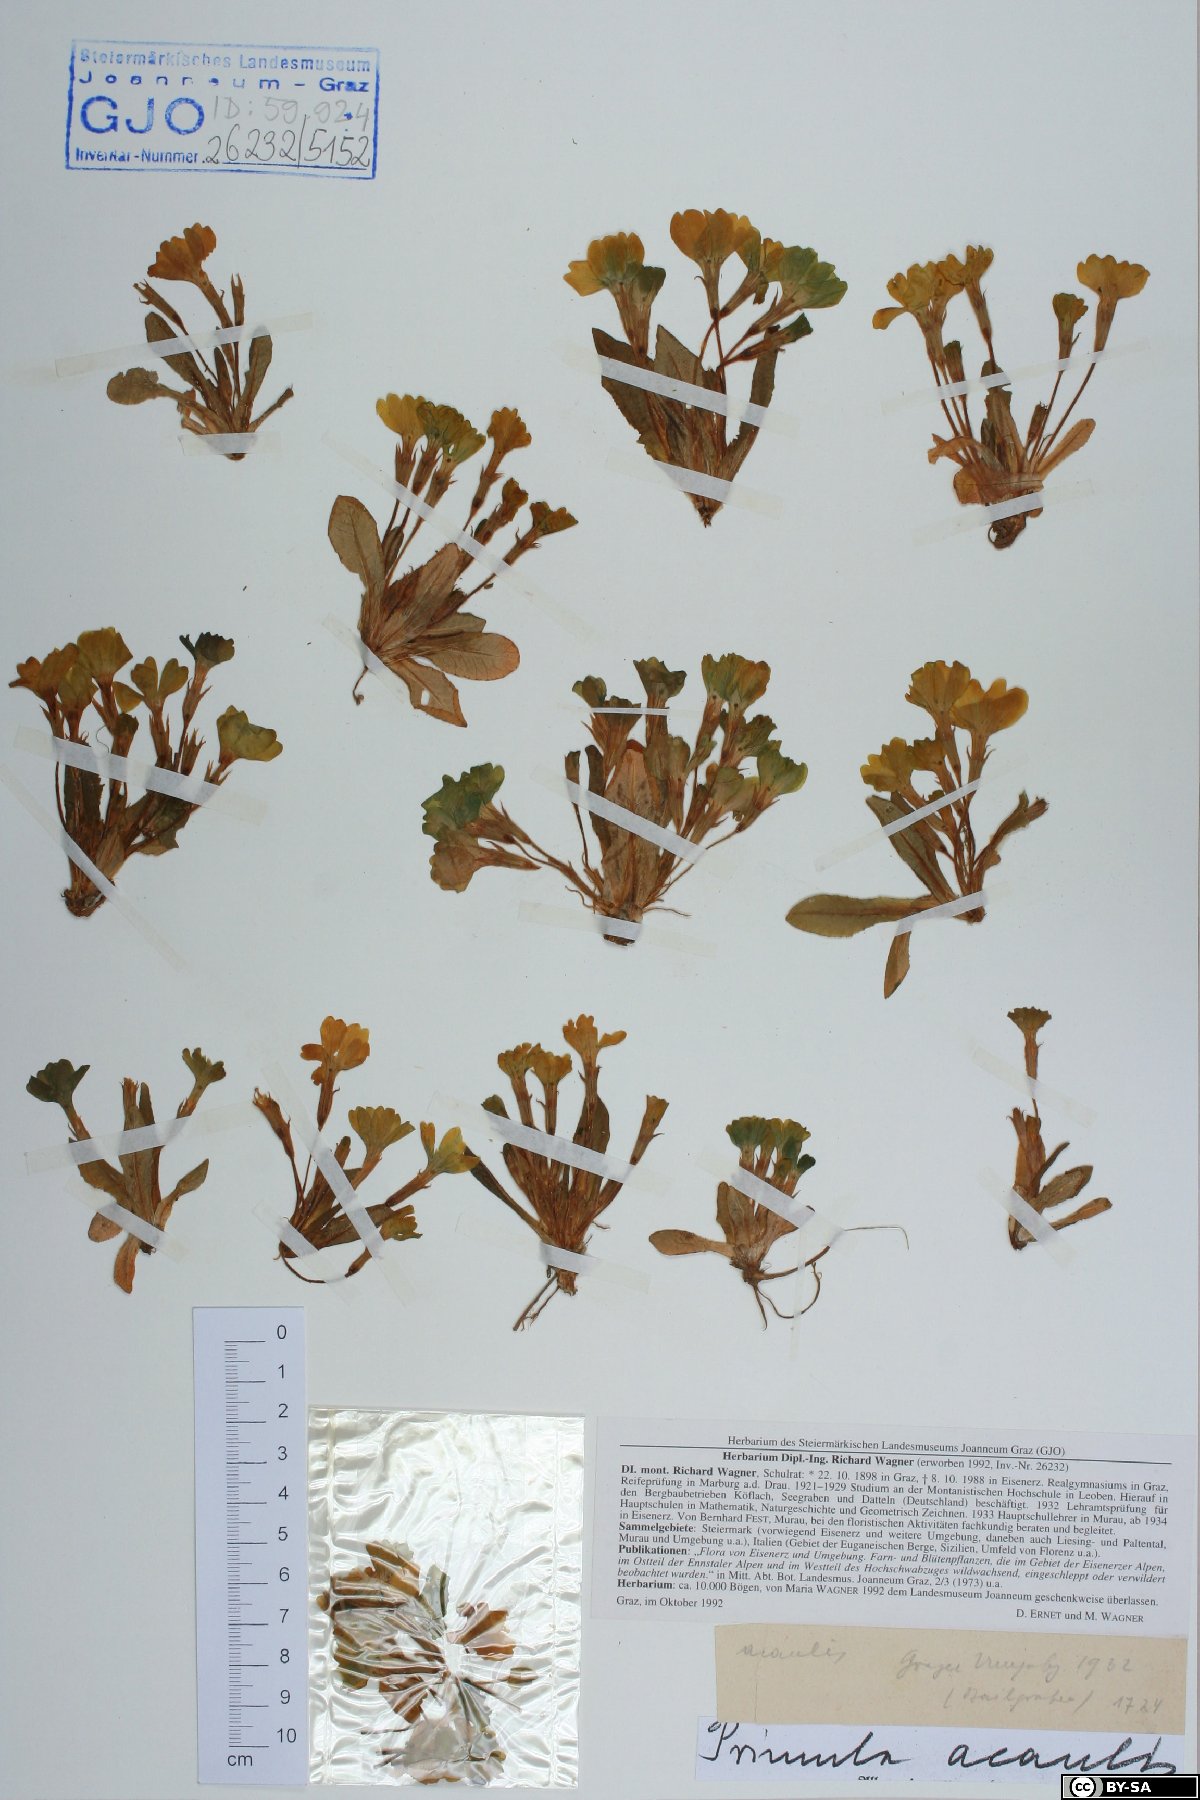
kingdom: Plantae
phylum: Tracheophyta
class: Magnoliopsida
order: Ericales
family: Primulaceae
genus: Primula
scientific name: Primula vulgaris
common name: Primrose
